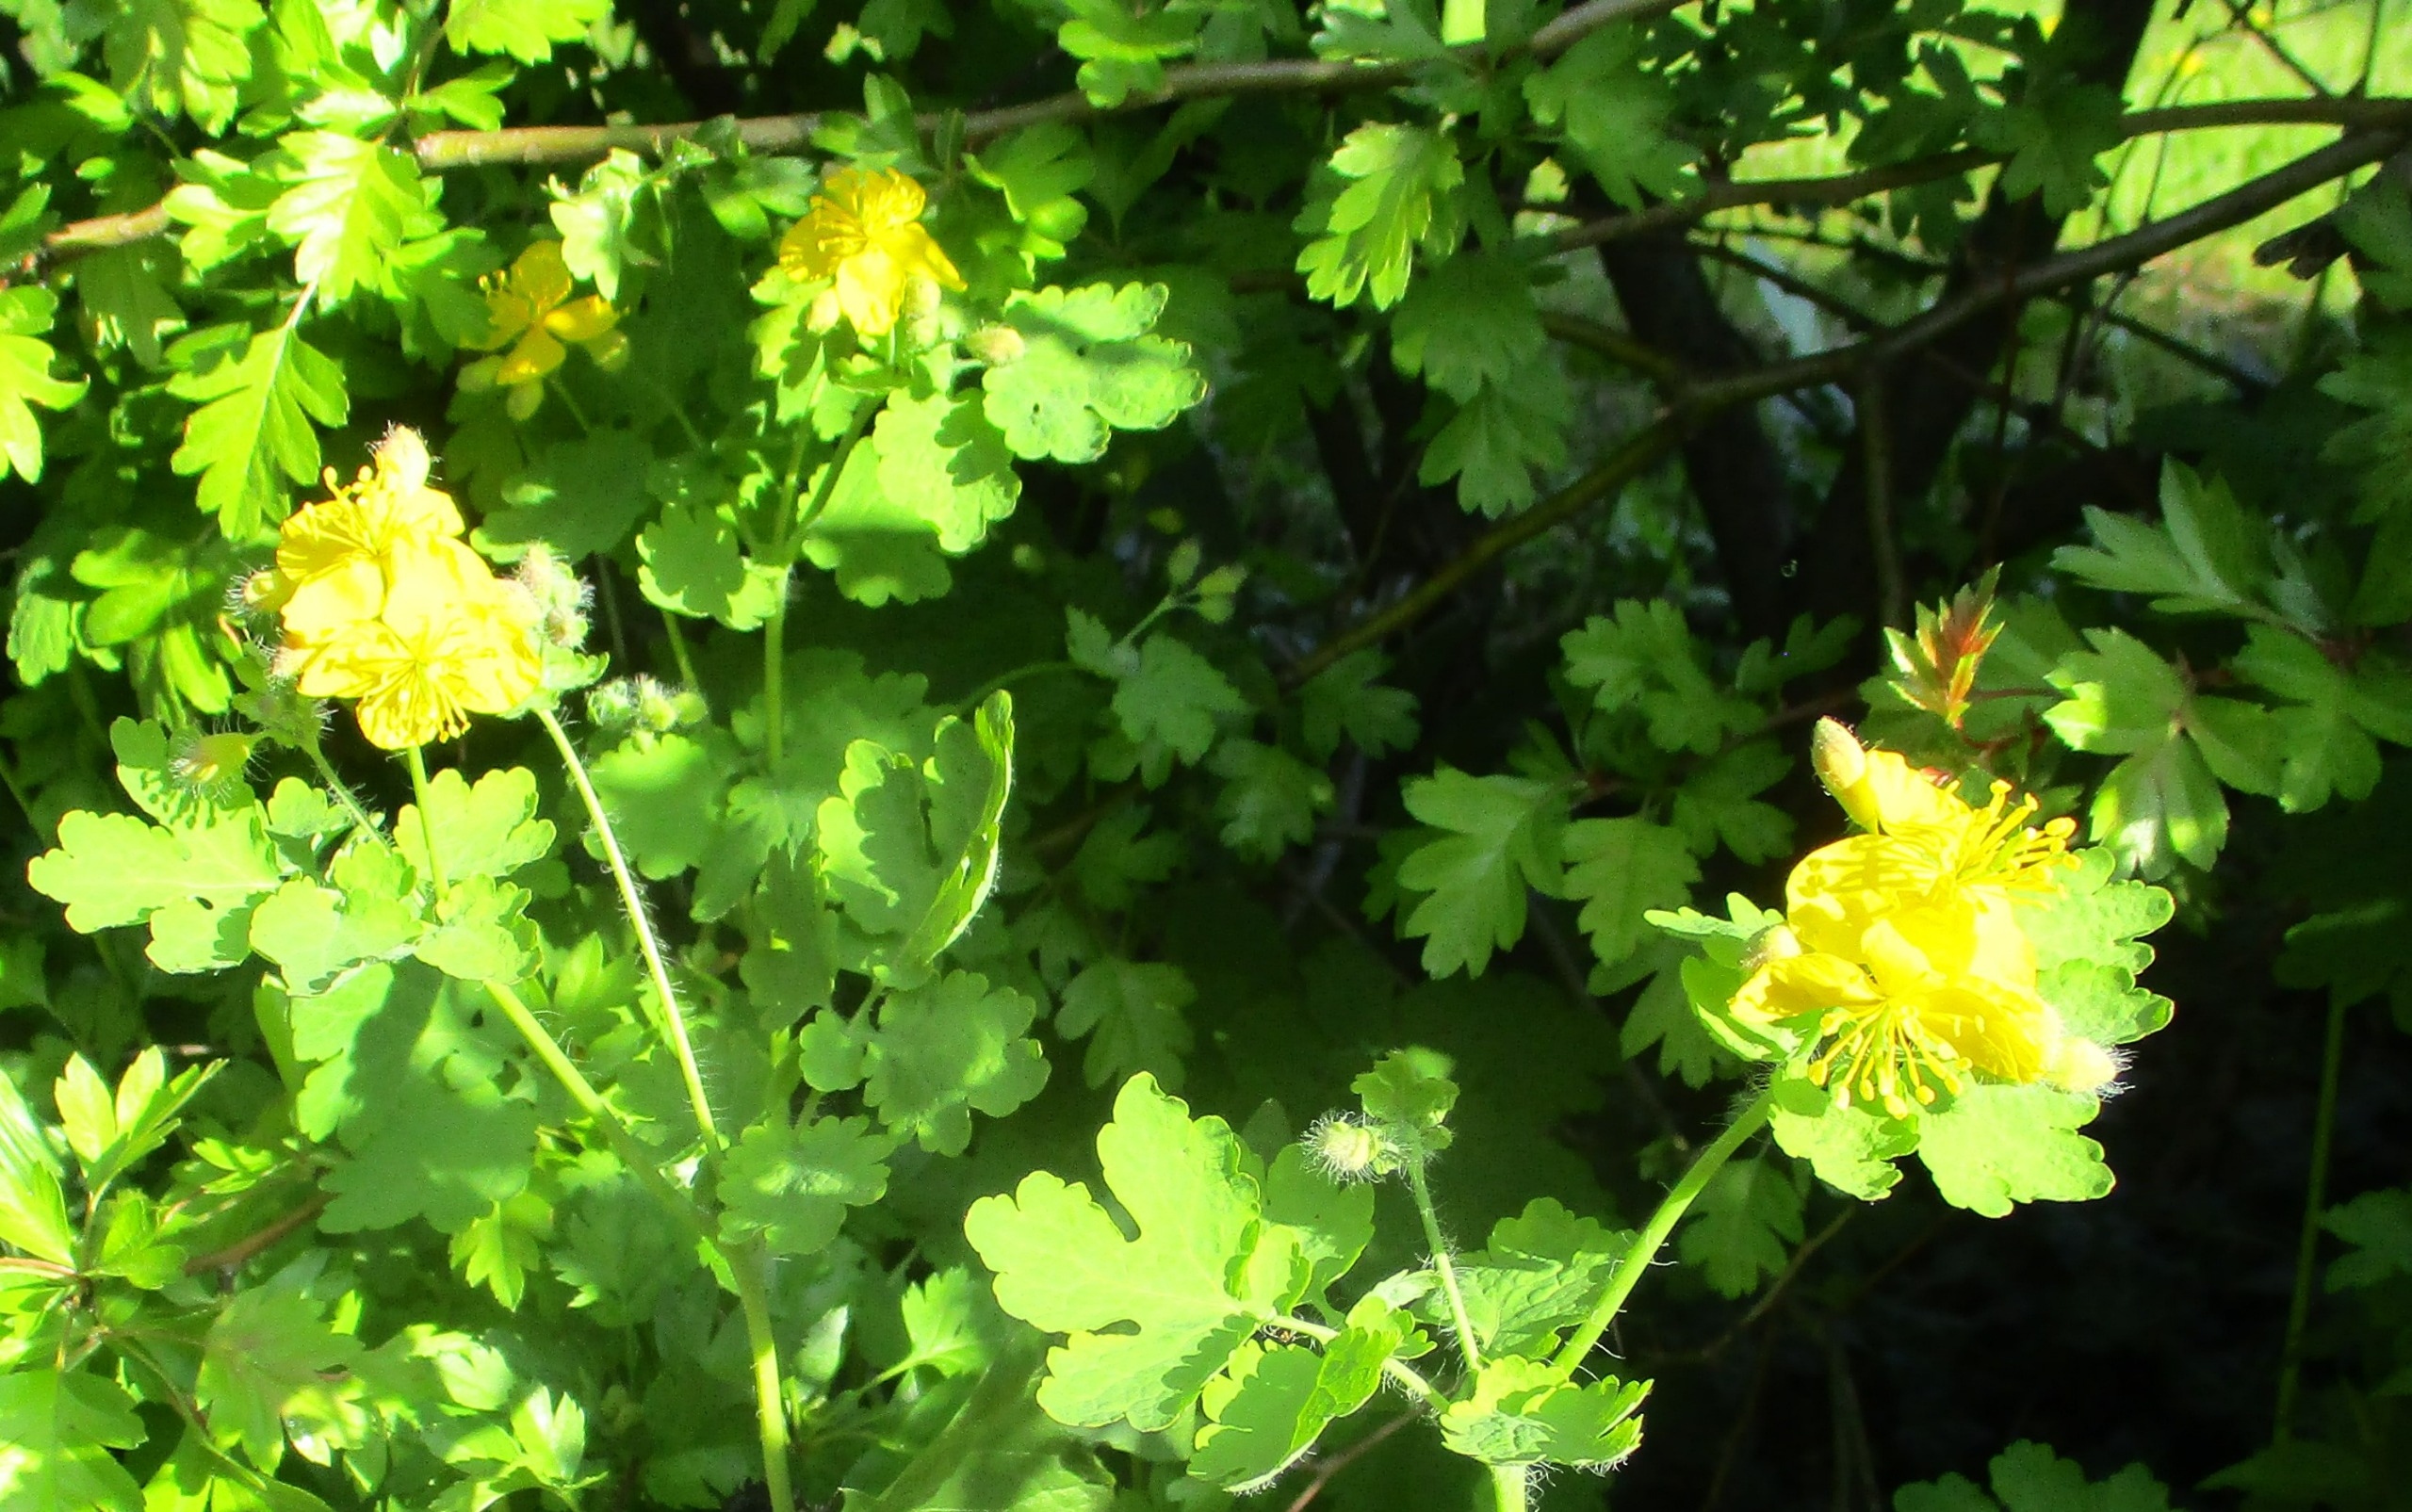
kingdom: Plantae
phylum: Tracheophyta
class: Magnoliopsida
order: Ranunculales
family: Papaveraceae
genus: Chelidonium
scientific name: Chelidonium majus
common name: Svaleurt
